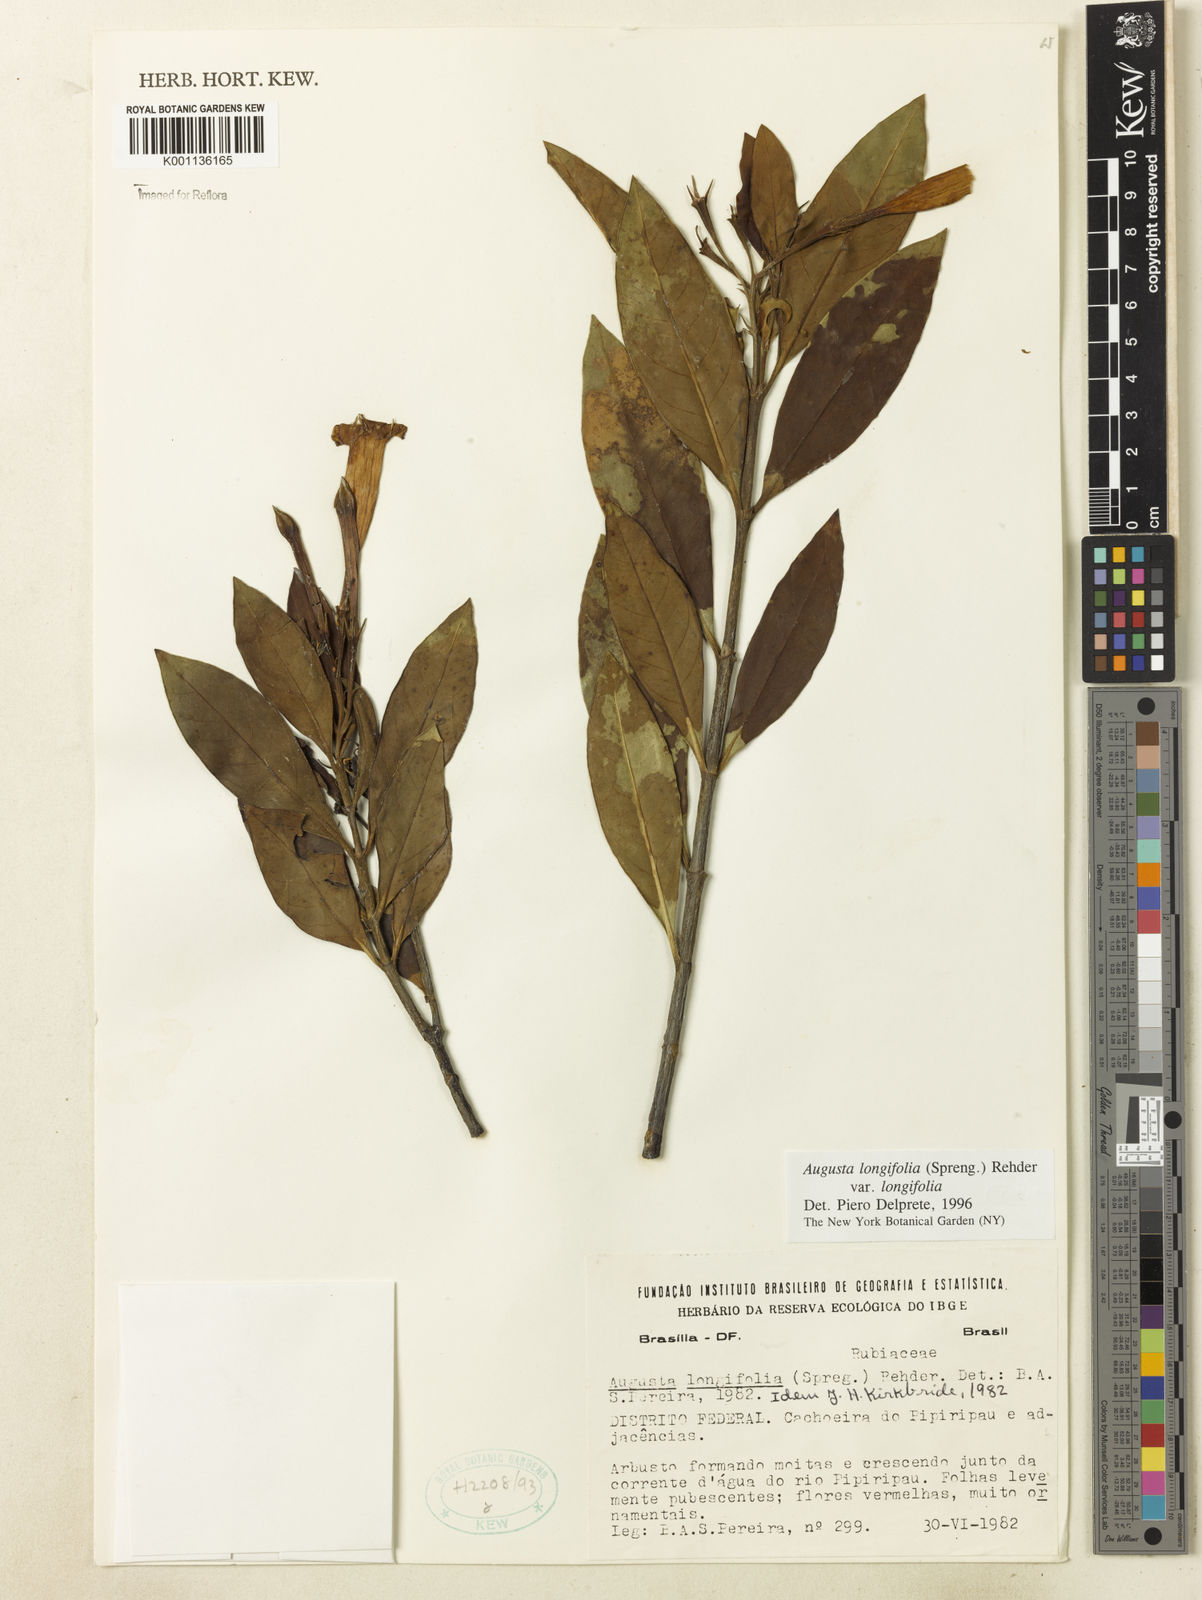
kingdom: Plantae
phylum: Tracheophyta
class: Magnoliopsida
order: Gentianales
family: Rubiaceae
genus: Augusta
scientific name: Augusta longifolia
